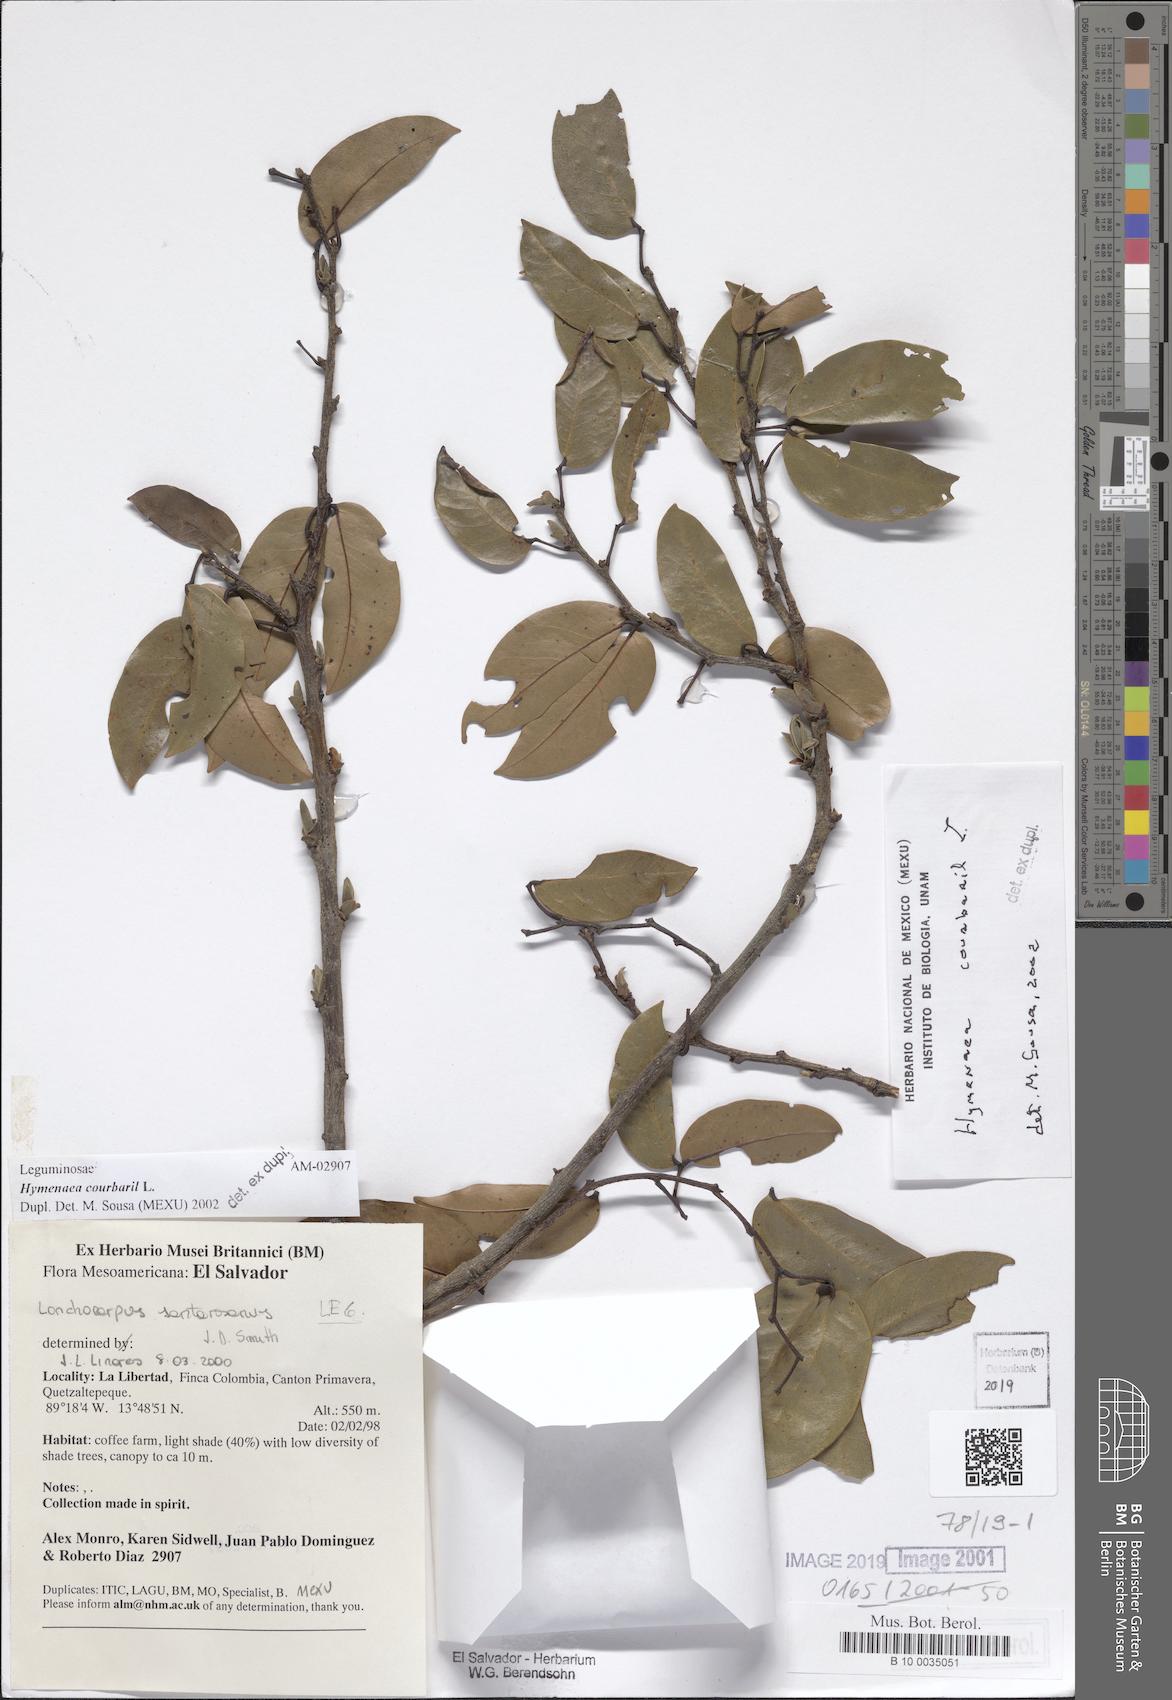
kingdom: Plantae
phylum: Tracheophyta
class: Magnoliopsida
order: Fabales
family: Fabaceae
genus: Hymenaea
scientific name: Hymenaea courbaril
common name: Brazilian copal
